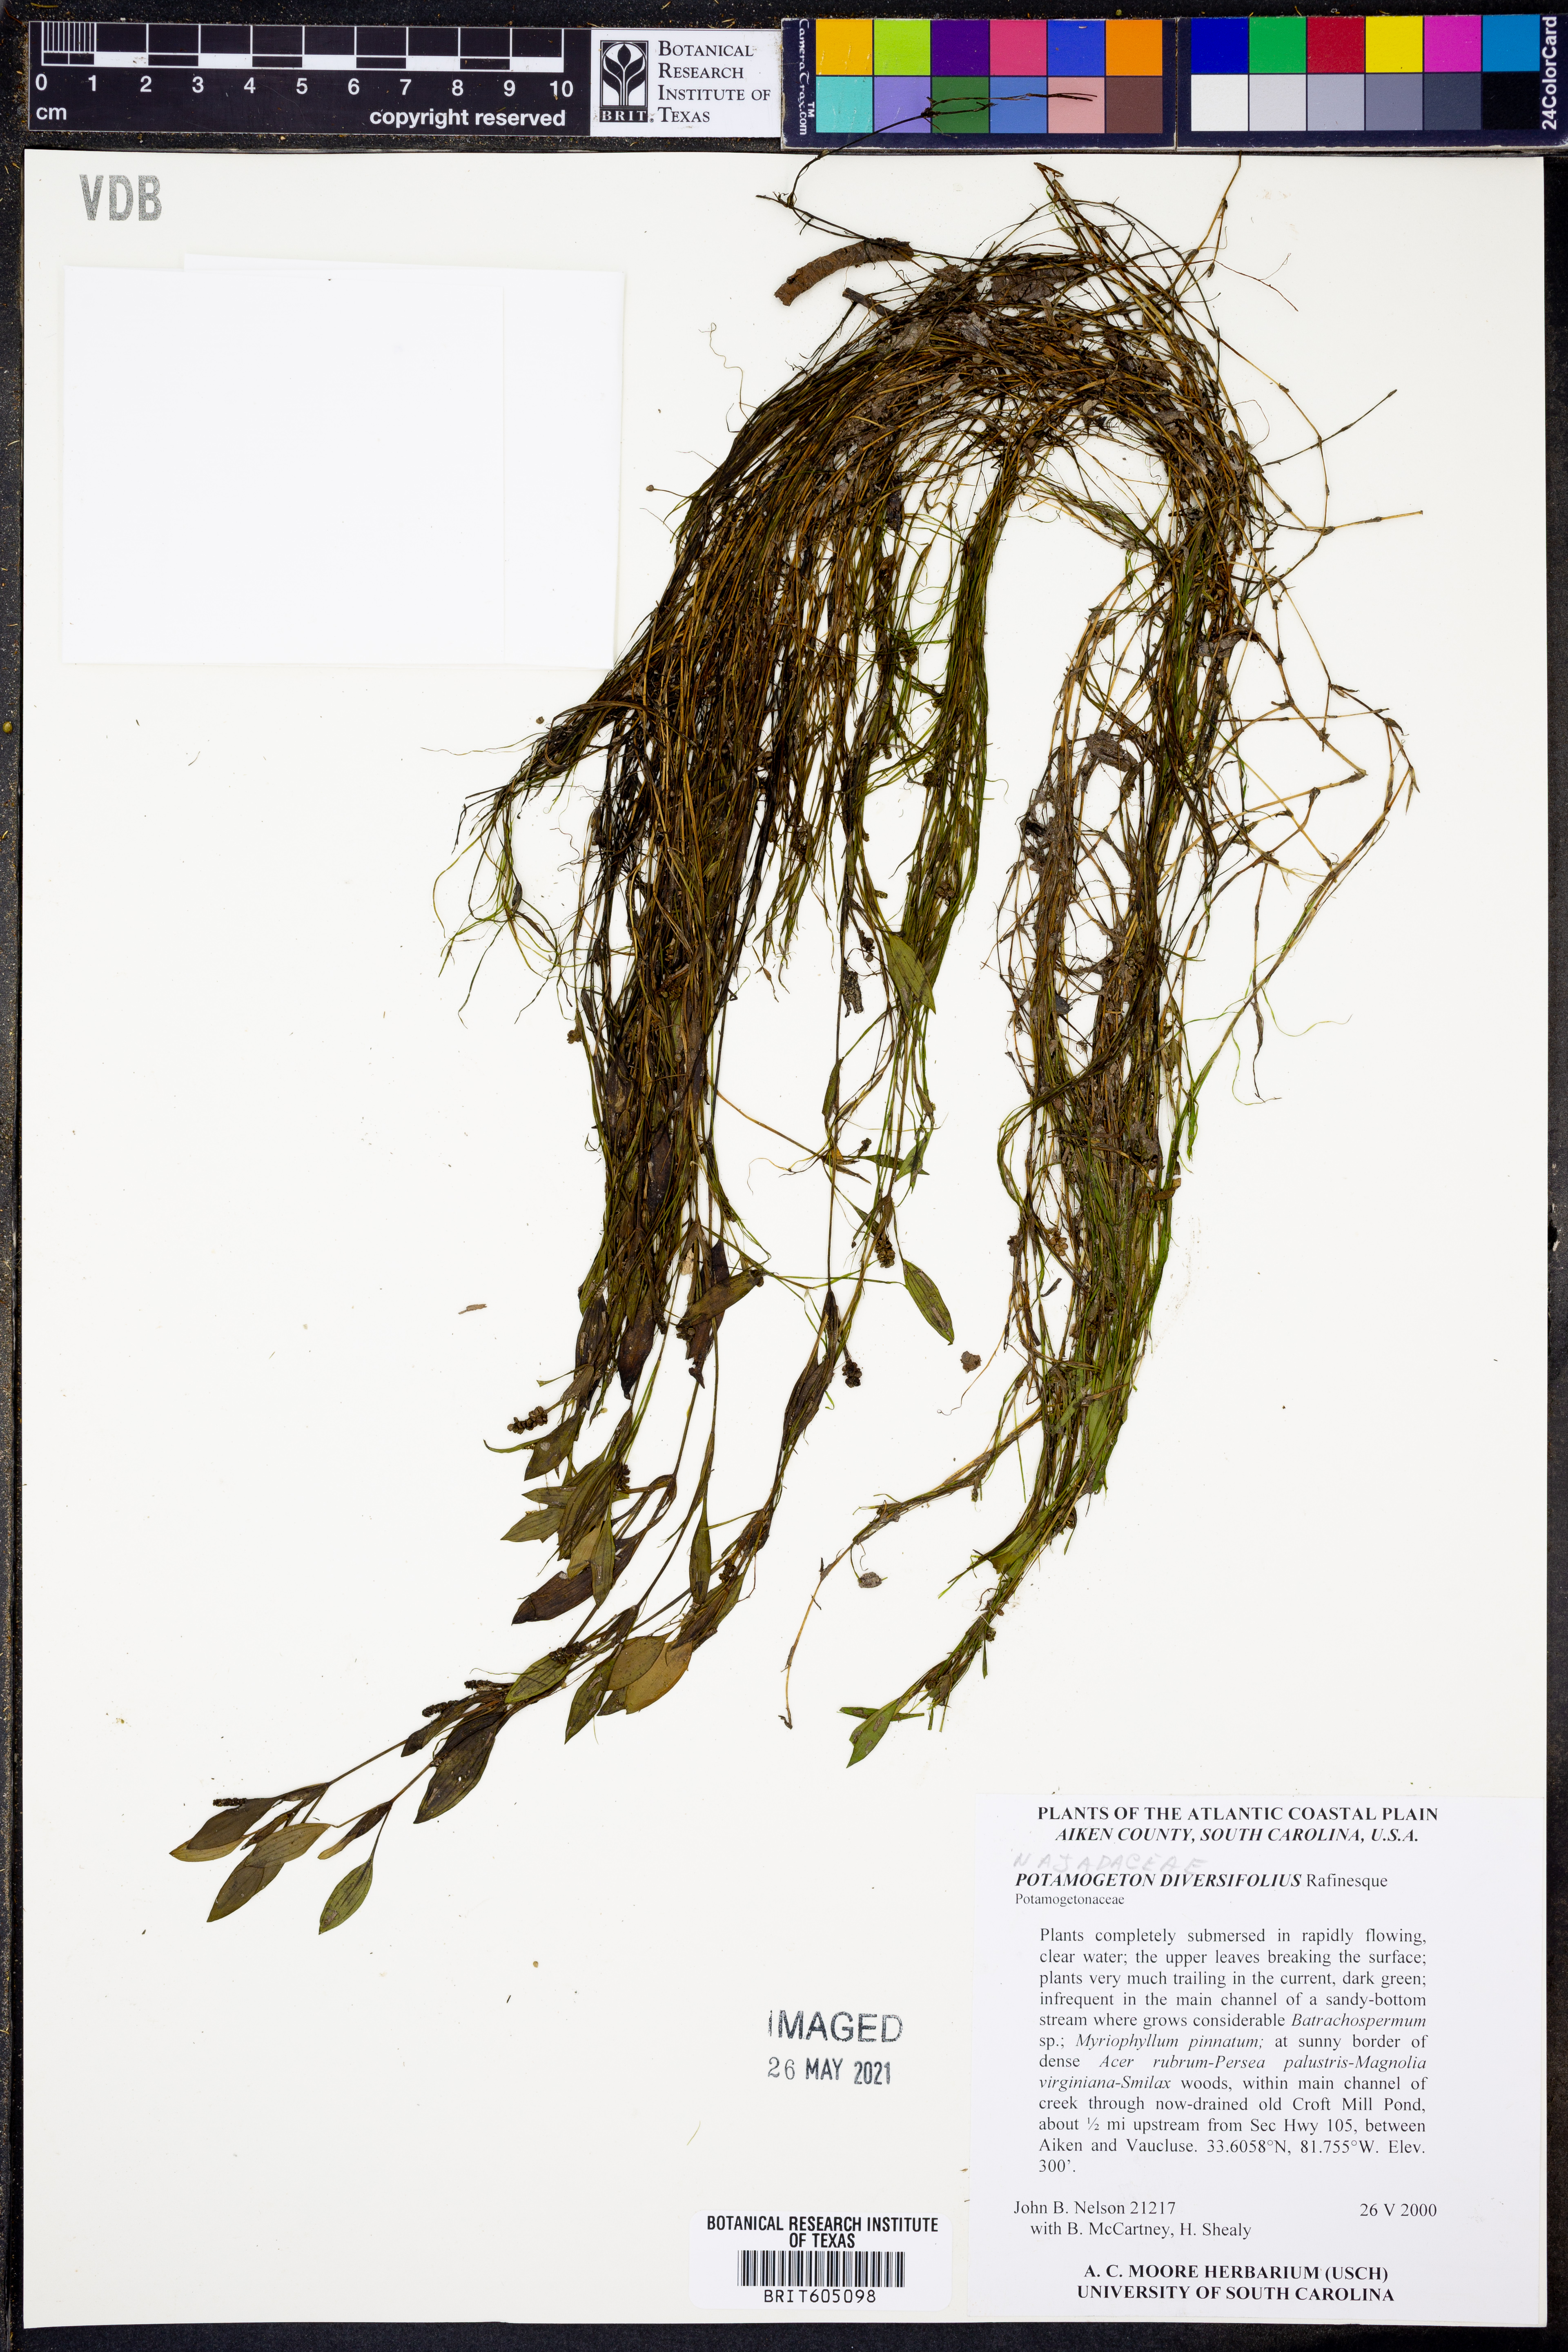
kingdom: Plantae
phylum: Tracheophyta
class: Liliopsida
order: Alismatales
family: Potamogetonaceae
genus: Potamogeton
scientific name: Potamogeton diversifolius
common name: Water-thread pondweed
